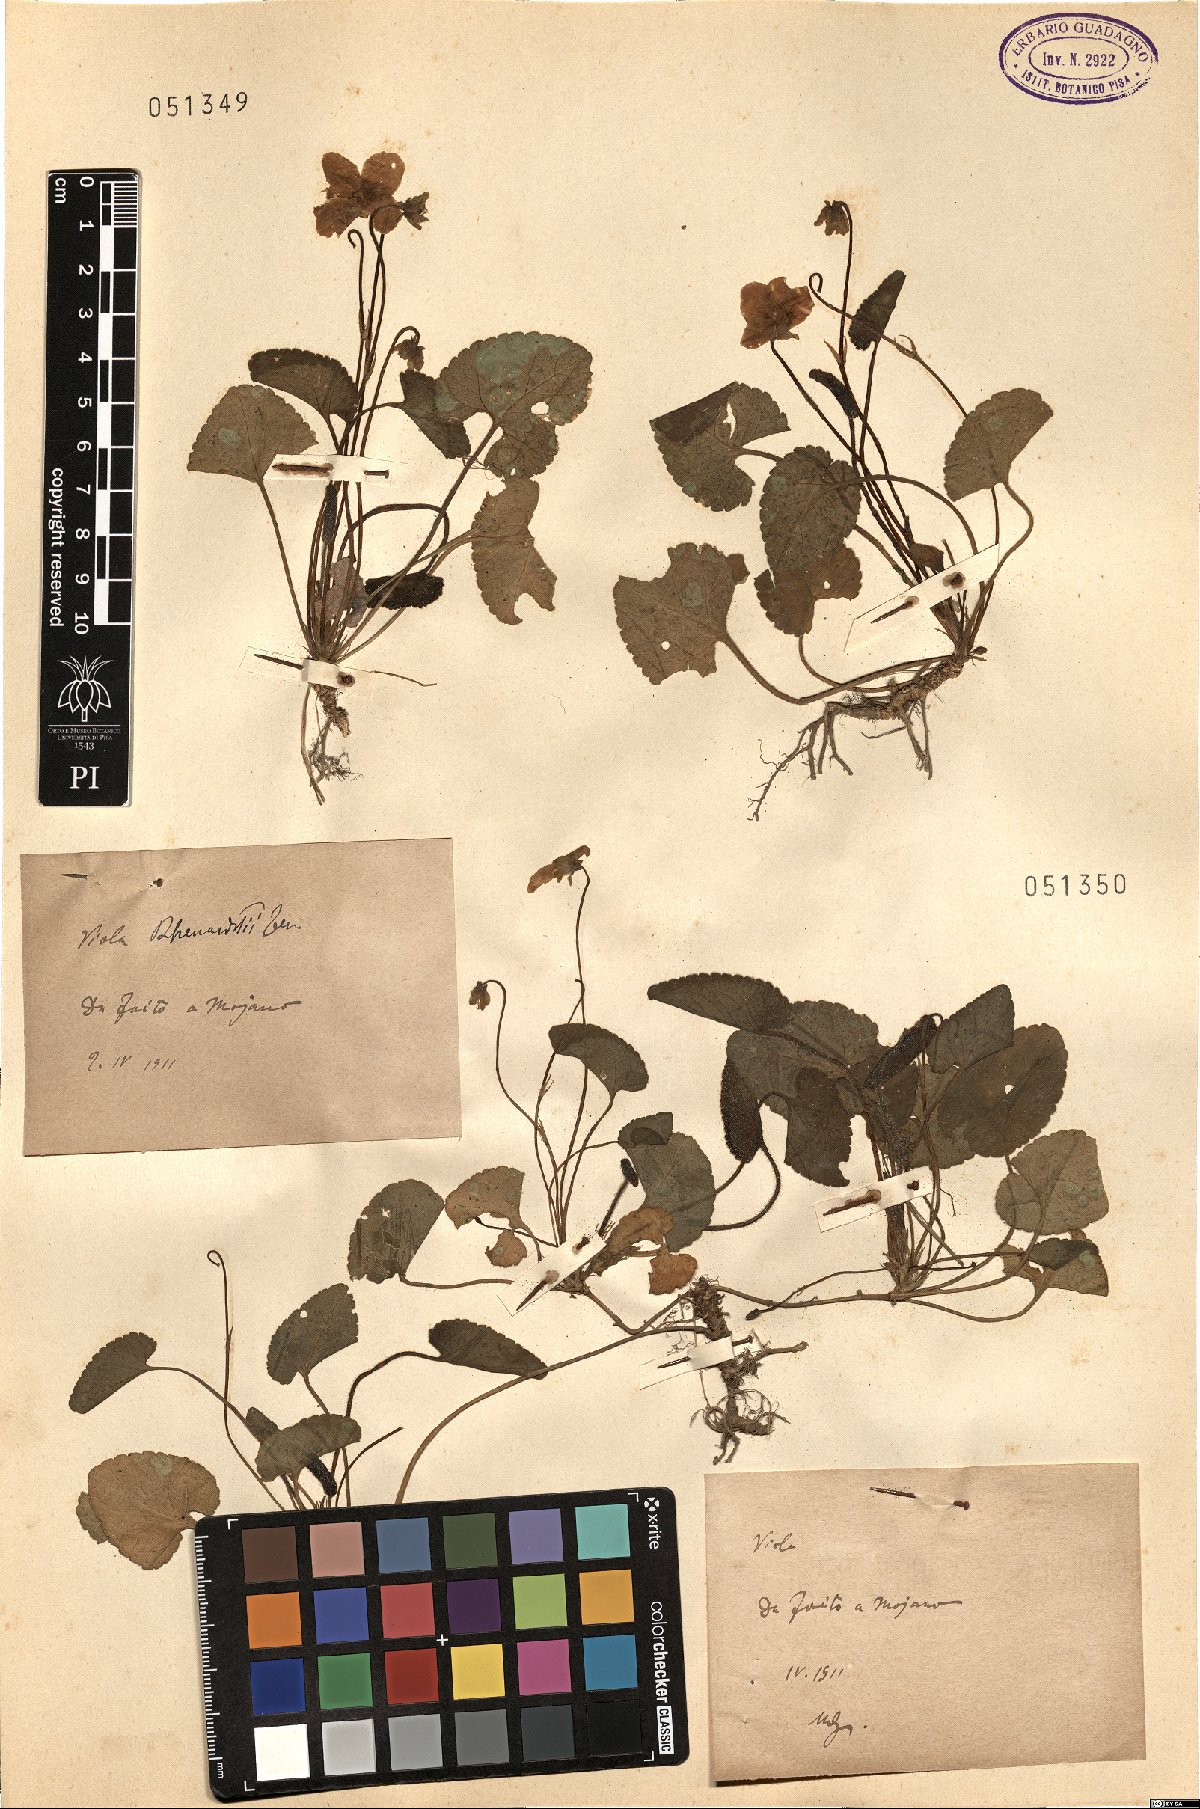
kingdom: Plantae
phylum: Tracheophyta
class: Magnoliopsida
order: Malpighiales
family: Violaceae
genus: Viola
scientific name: Viola alba
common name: White violet
